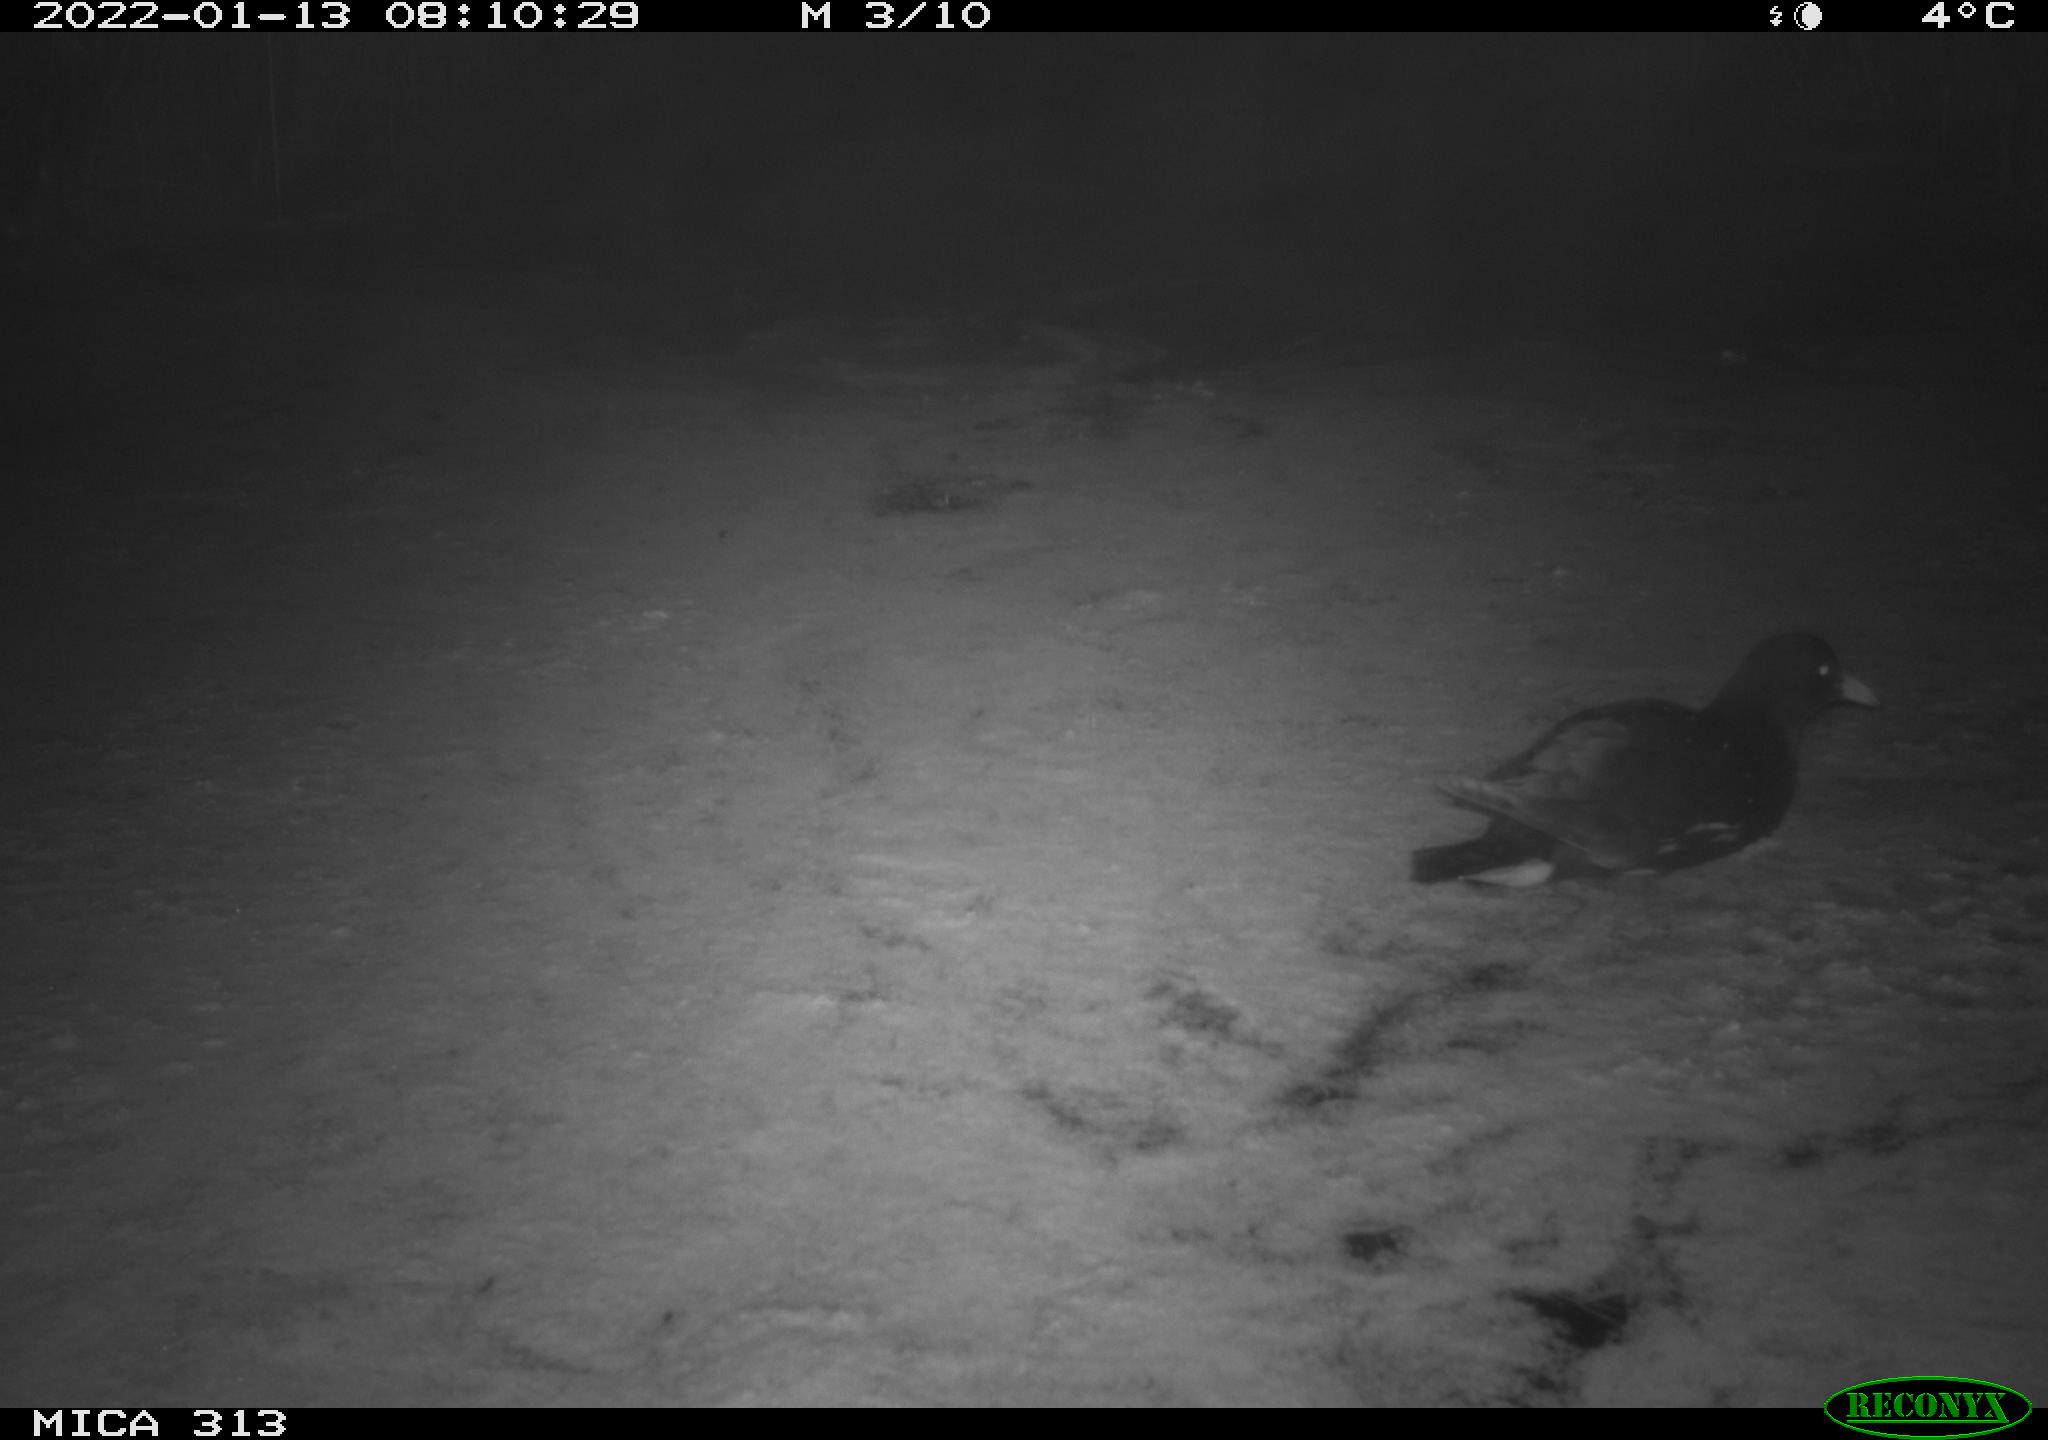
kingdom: Animalia
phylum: Chordata
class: Aves
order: Gruiformes
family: Rallidae
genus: Gallinula
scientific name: Gallinula chloropus
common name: Common moorhen
